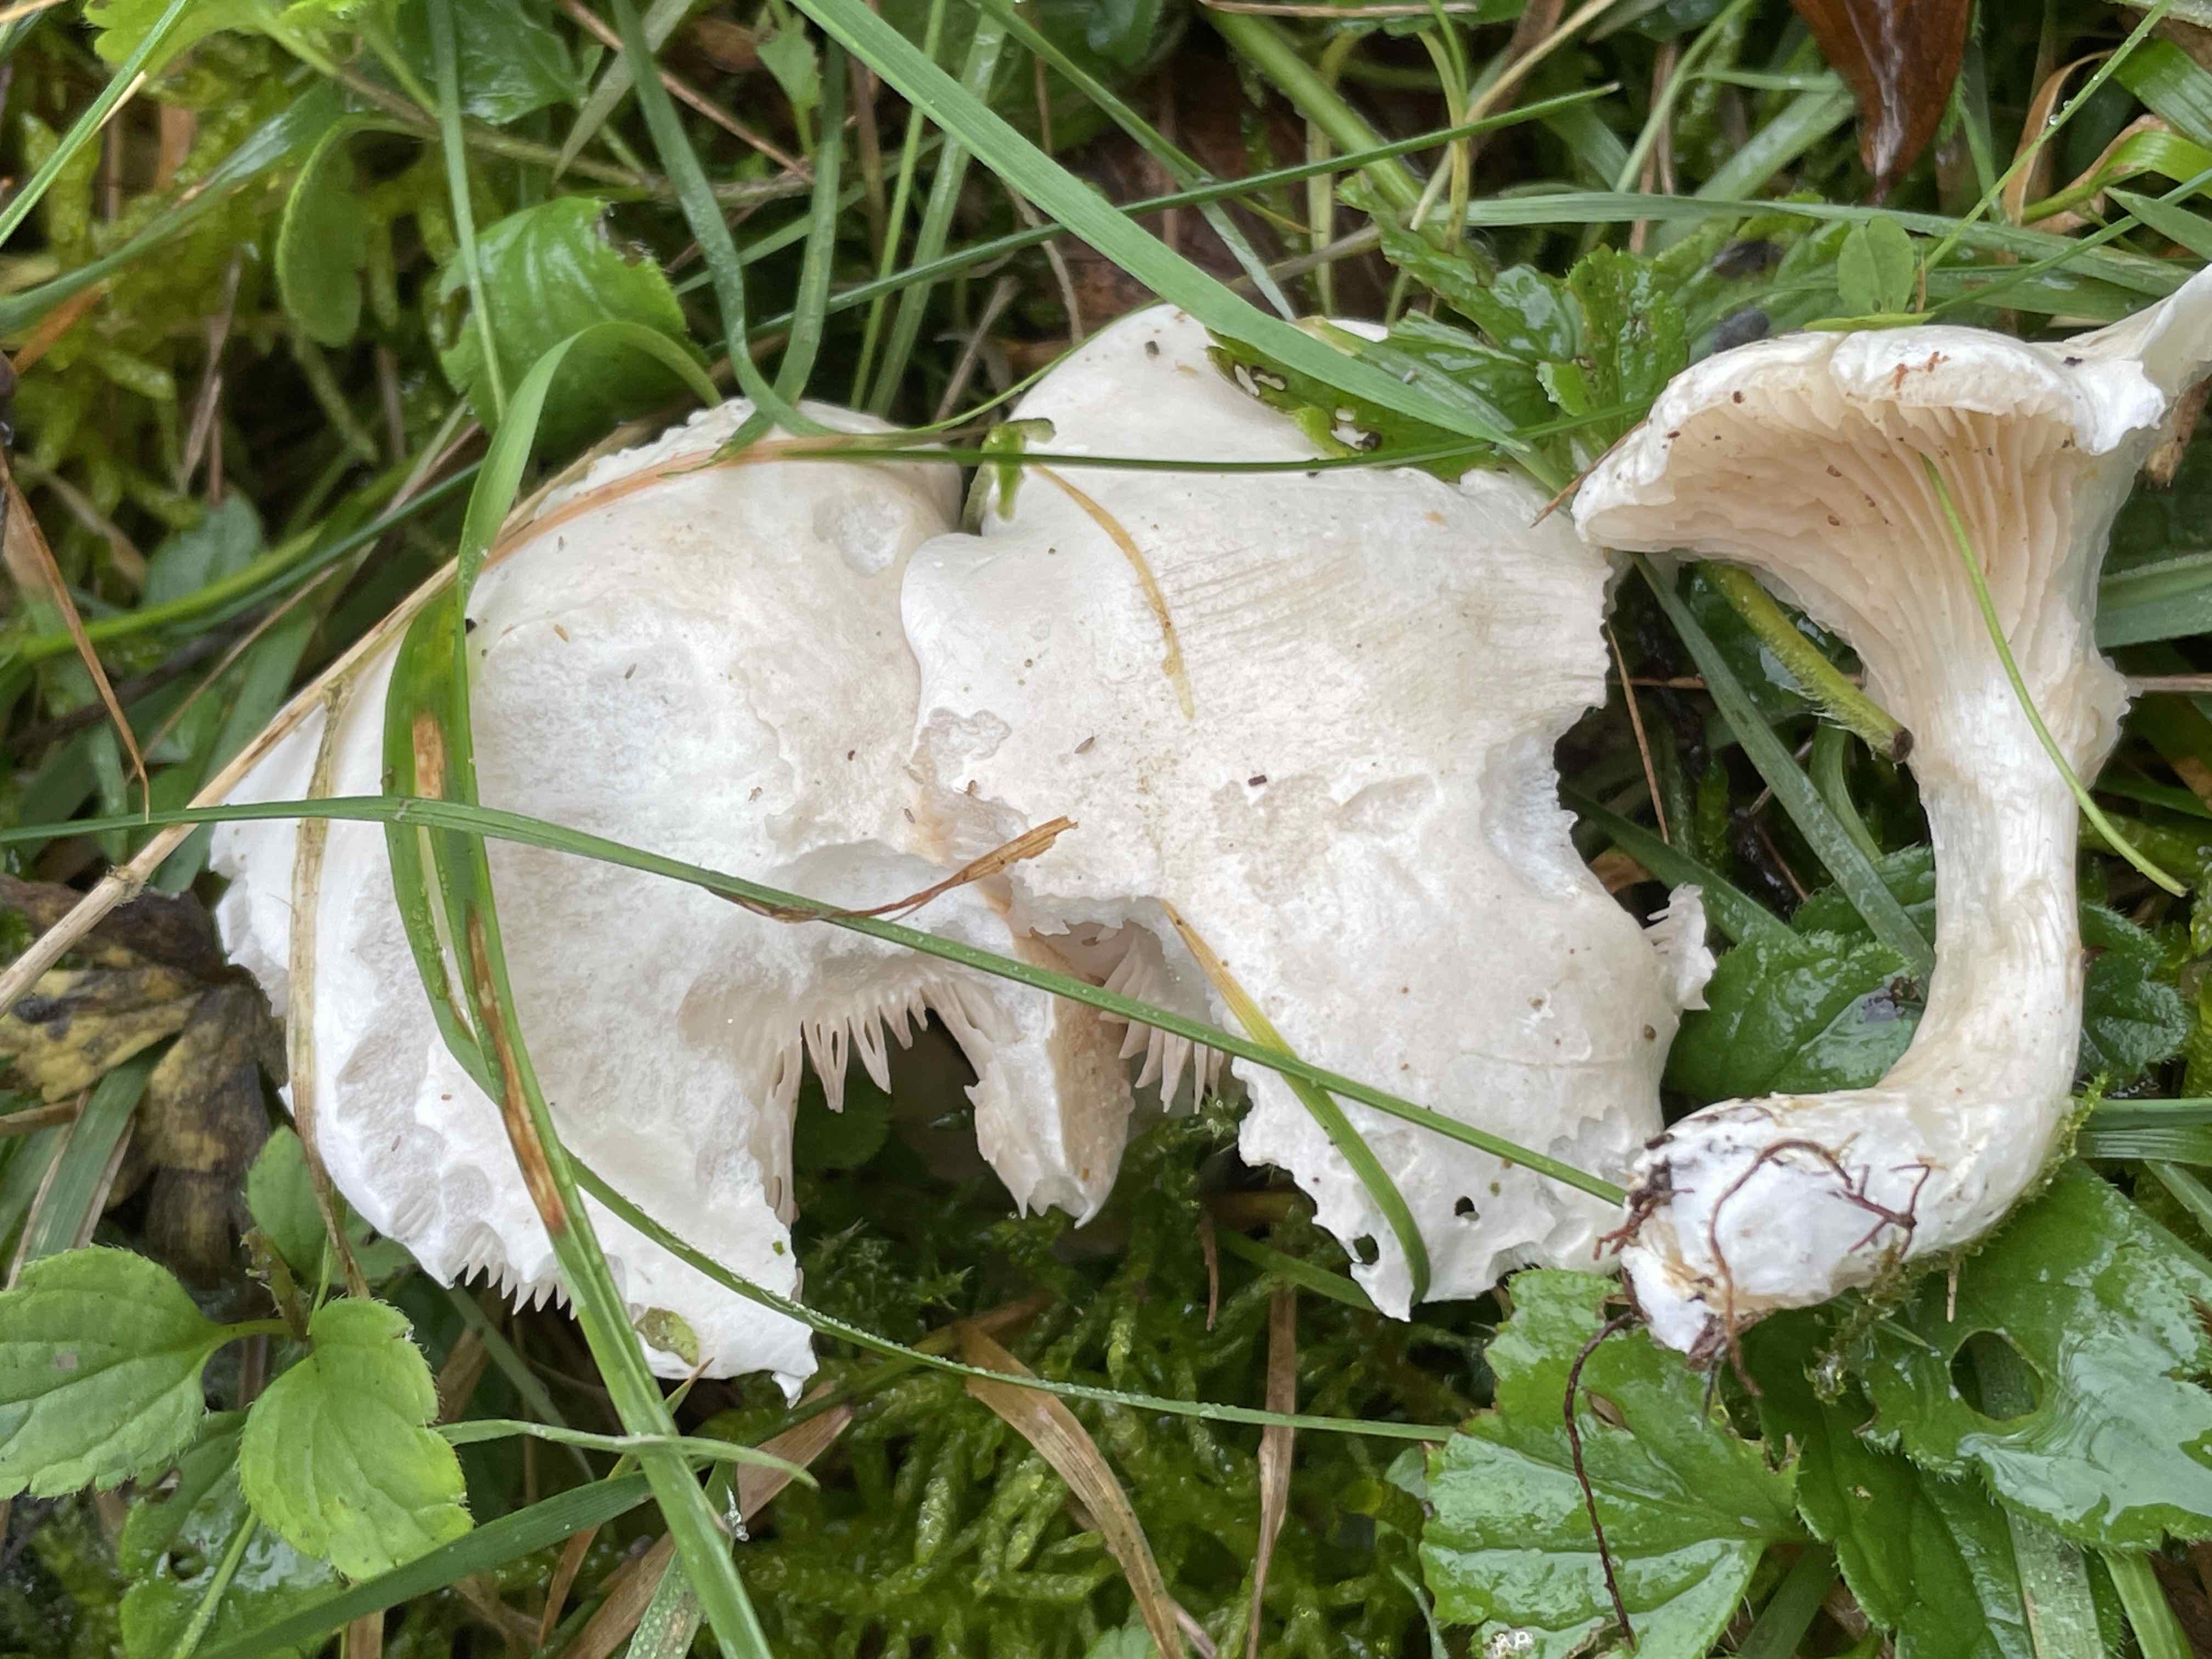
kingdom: Fungi
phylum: Basidiomycota
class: Agaricomycetes
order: Agaricales
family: Entolomataceae
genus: Clitopilus
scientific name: Clitopilus prunulus
